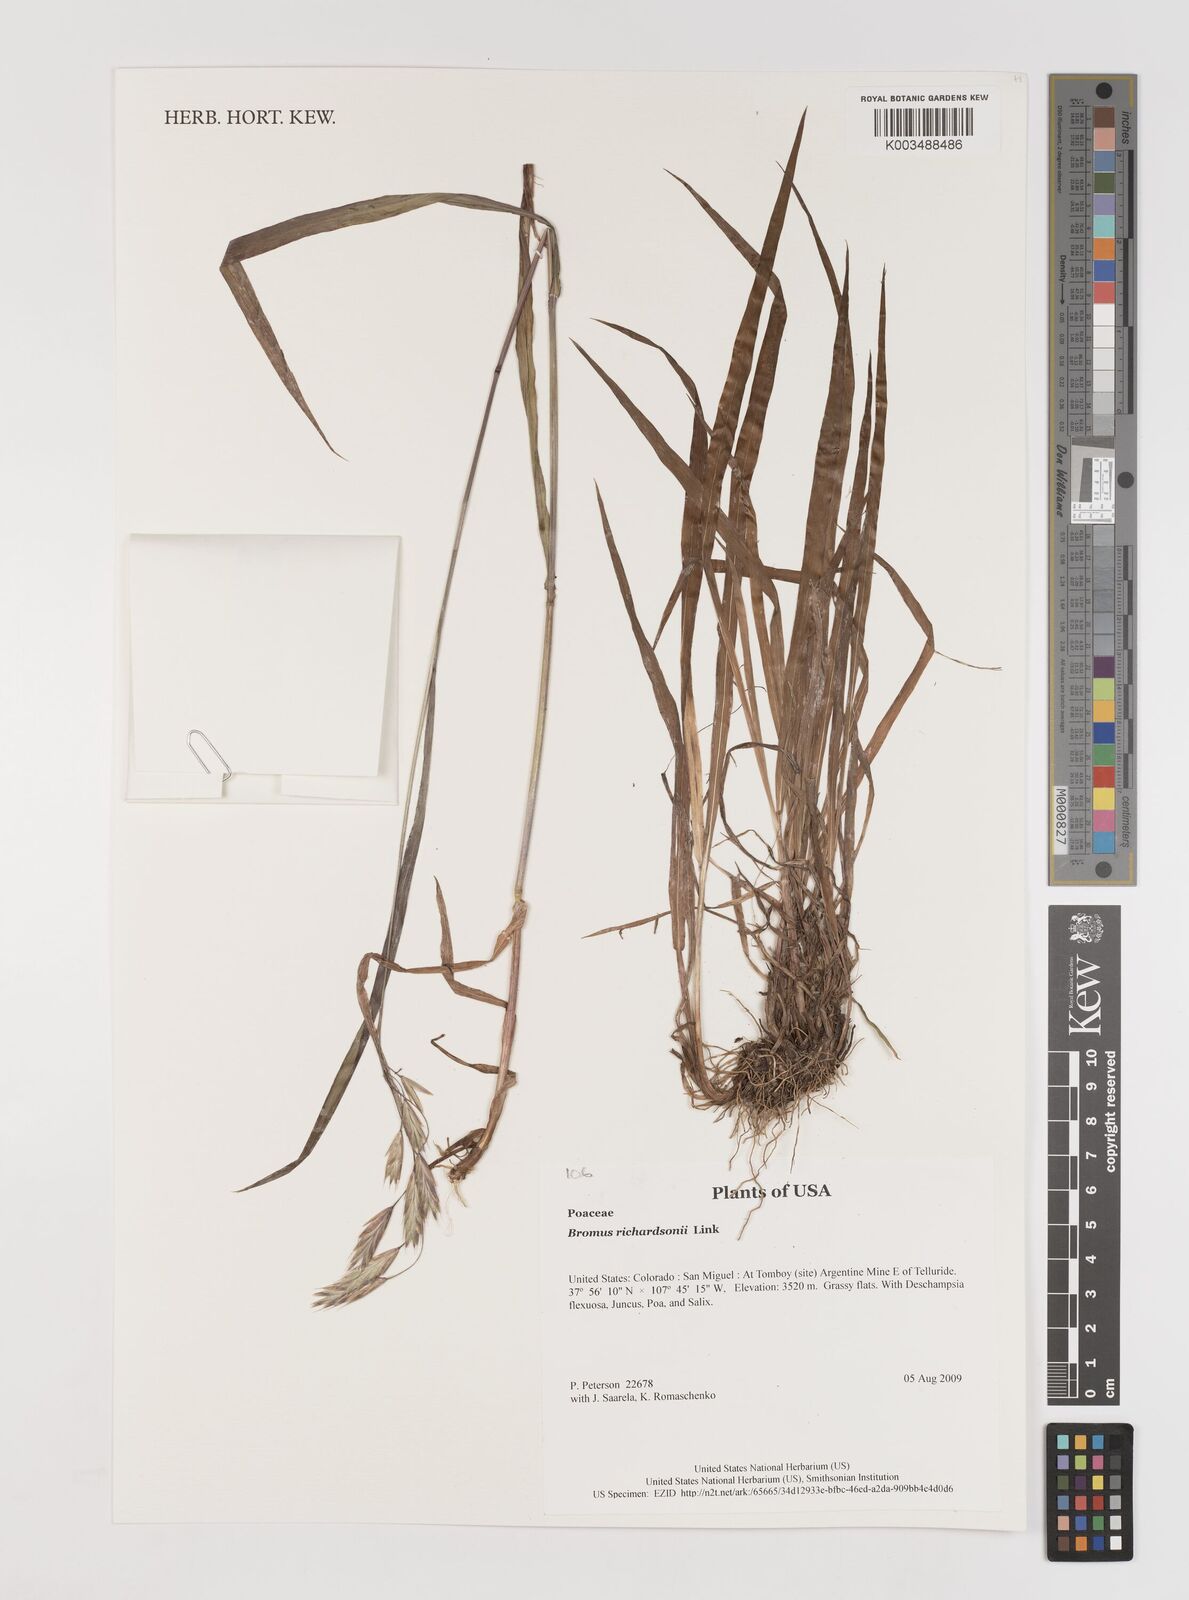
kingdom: Plantae
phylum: Tracheophyta
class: Liliopsida
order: Poales
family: Poaceae
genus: Bromus
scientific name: Bromus richardsonii
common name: Richardson's brome
